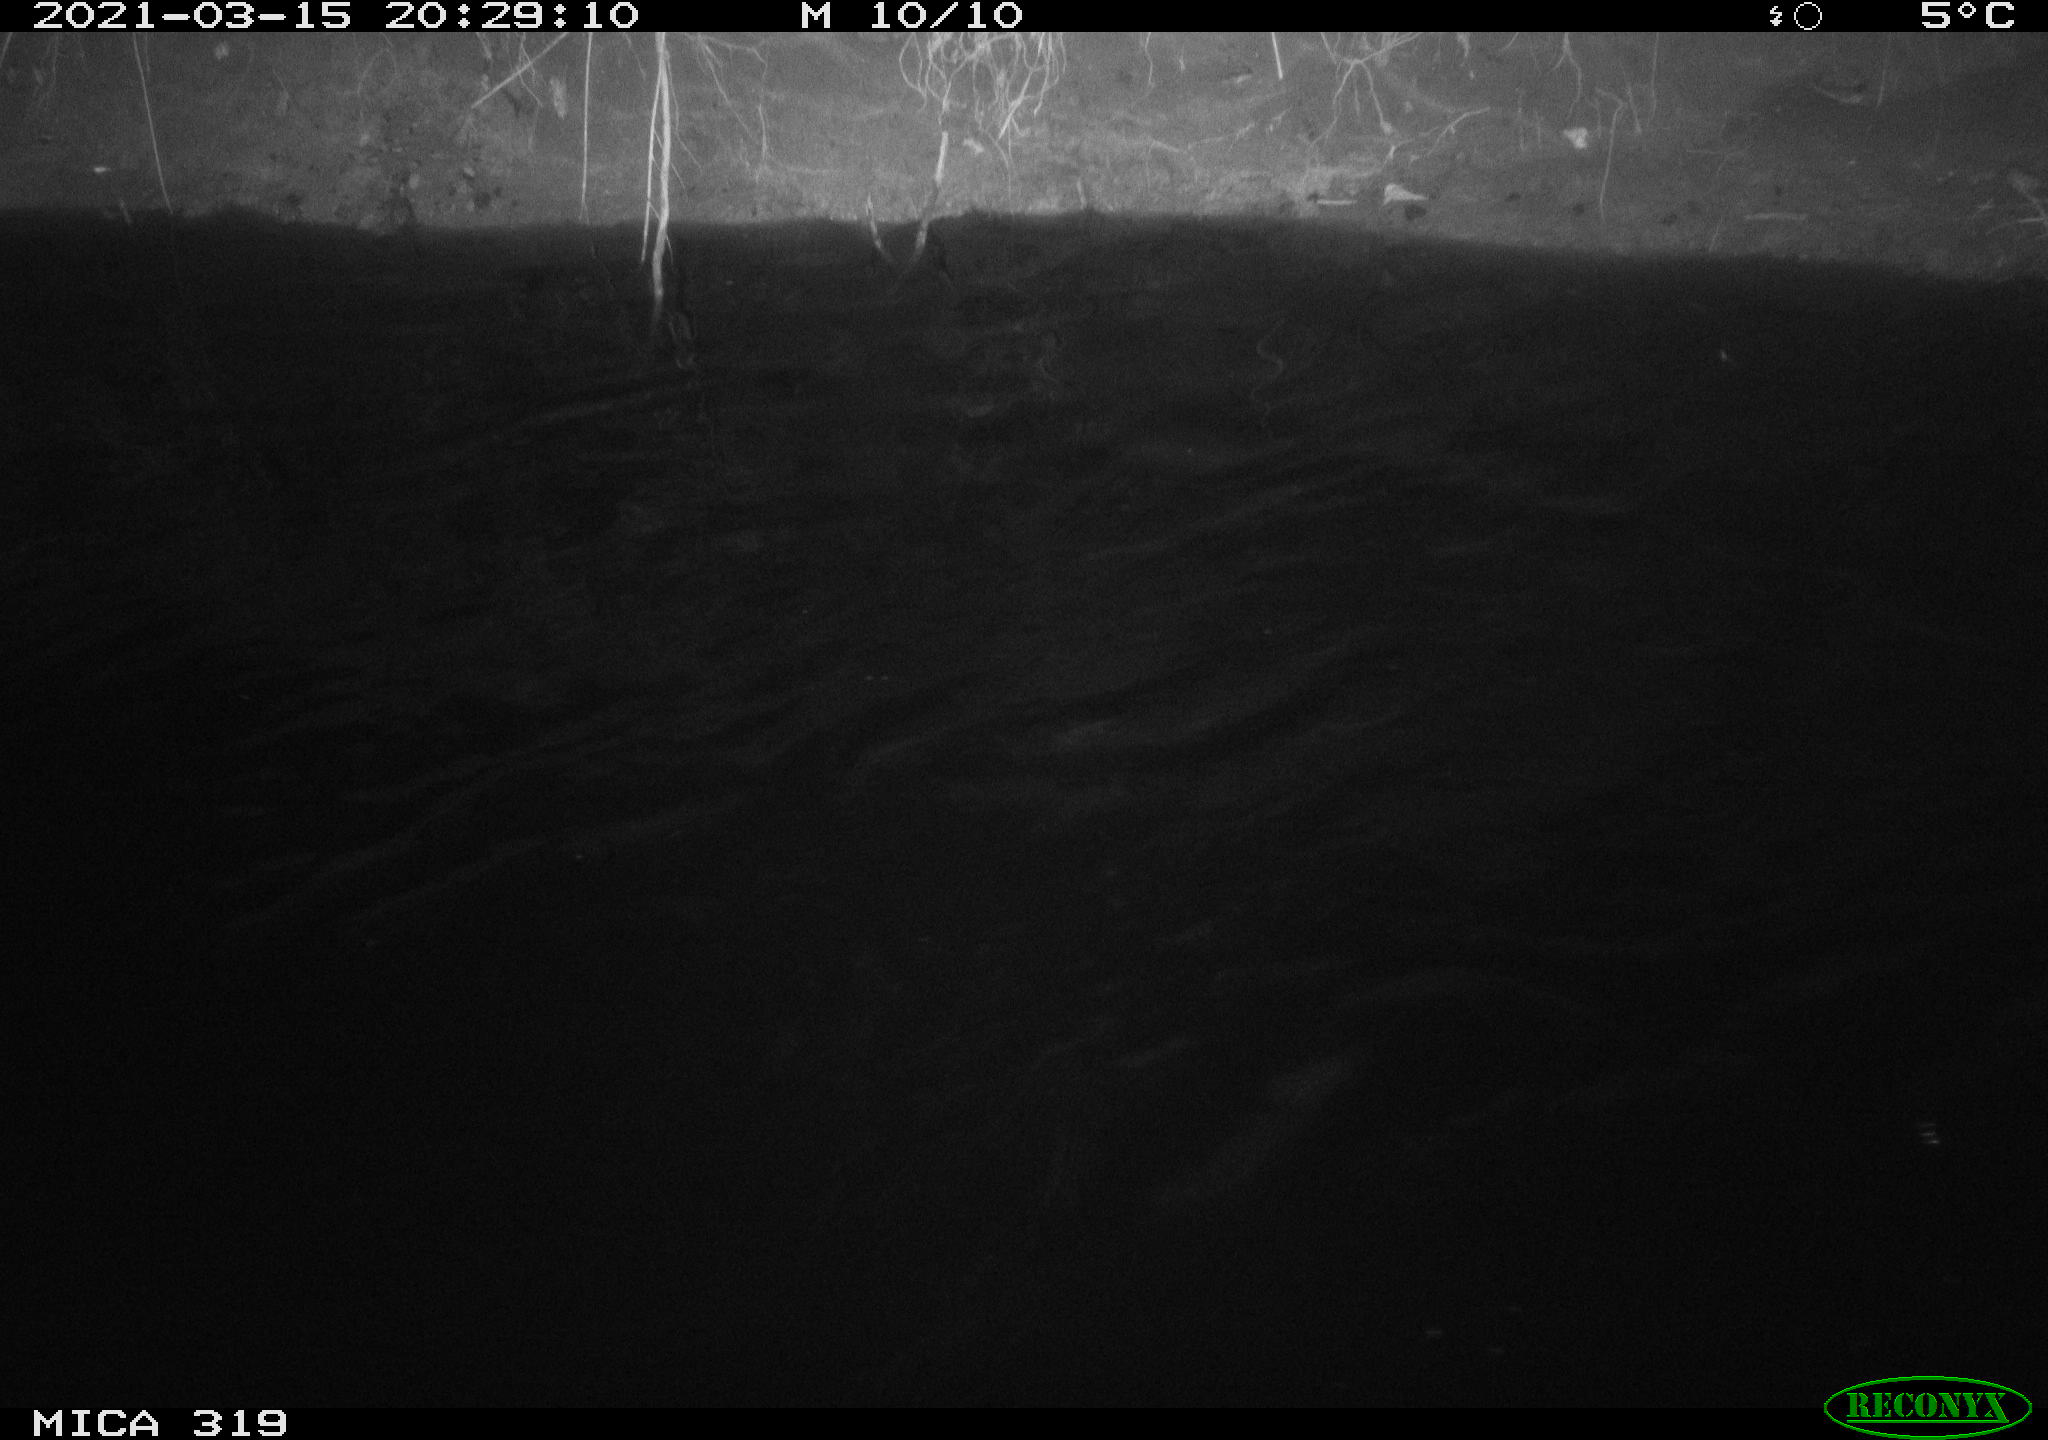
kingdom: Animalia
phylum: Chordata
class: Aves
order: Anseriformes
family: Anatidae
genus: Anas
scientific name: Anas platyrhynchos
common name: Mallard
